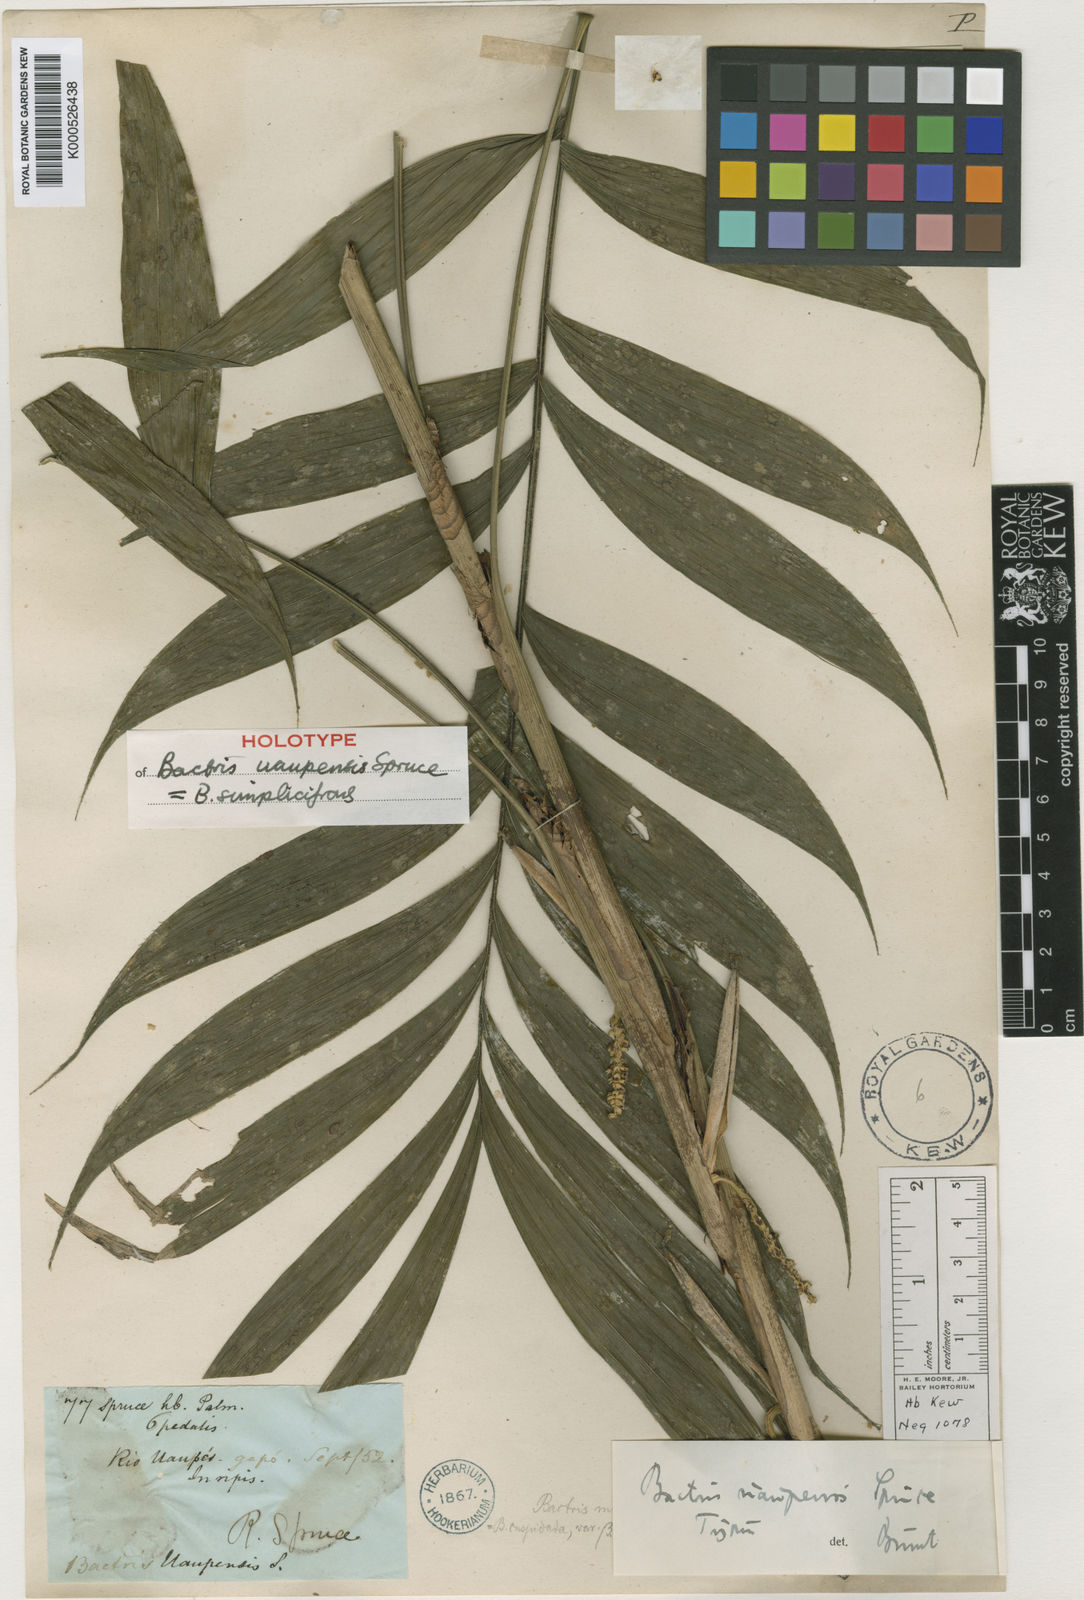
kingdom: Plantae
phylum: Tracheophyta
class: Liliopsida
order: Arecales
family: Arecaceae
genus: Bactris
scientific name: Bactris simplicifrons
